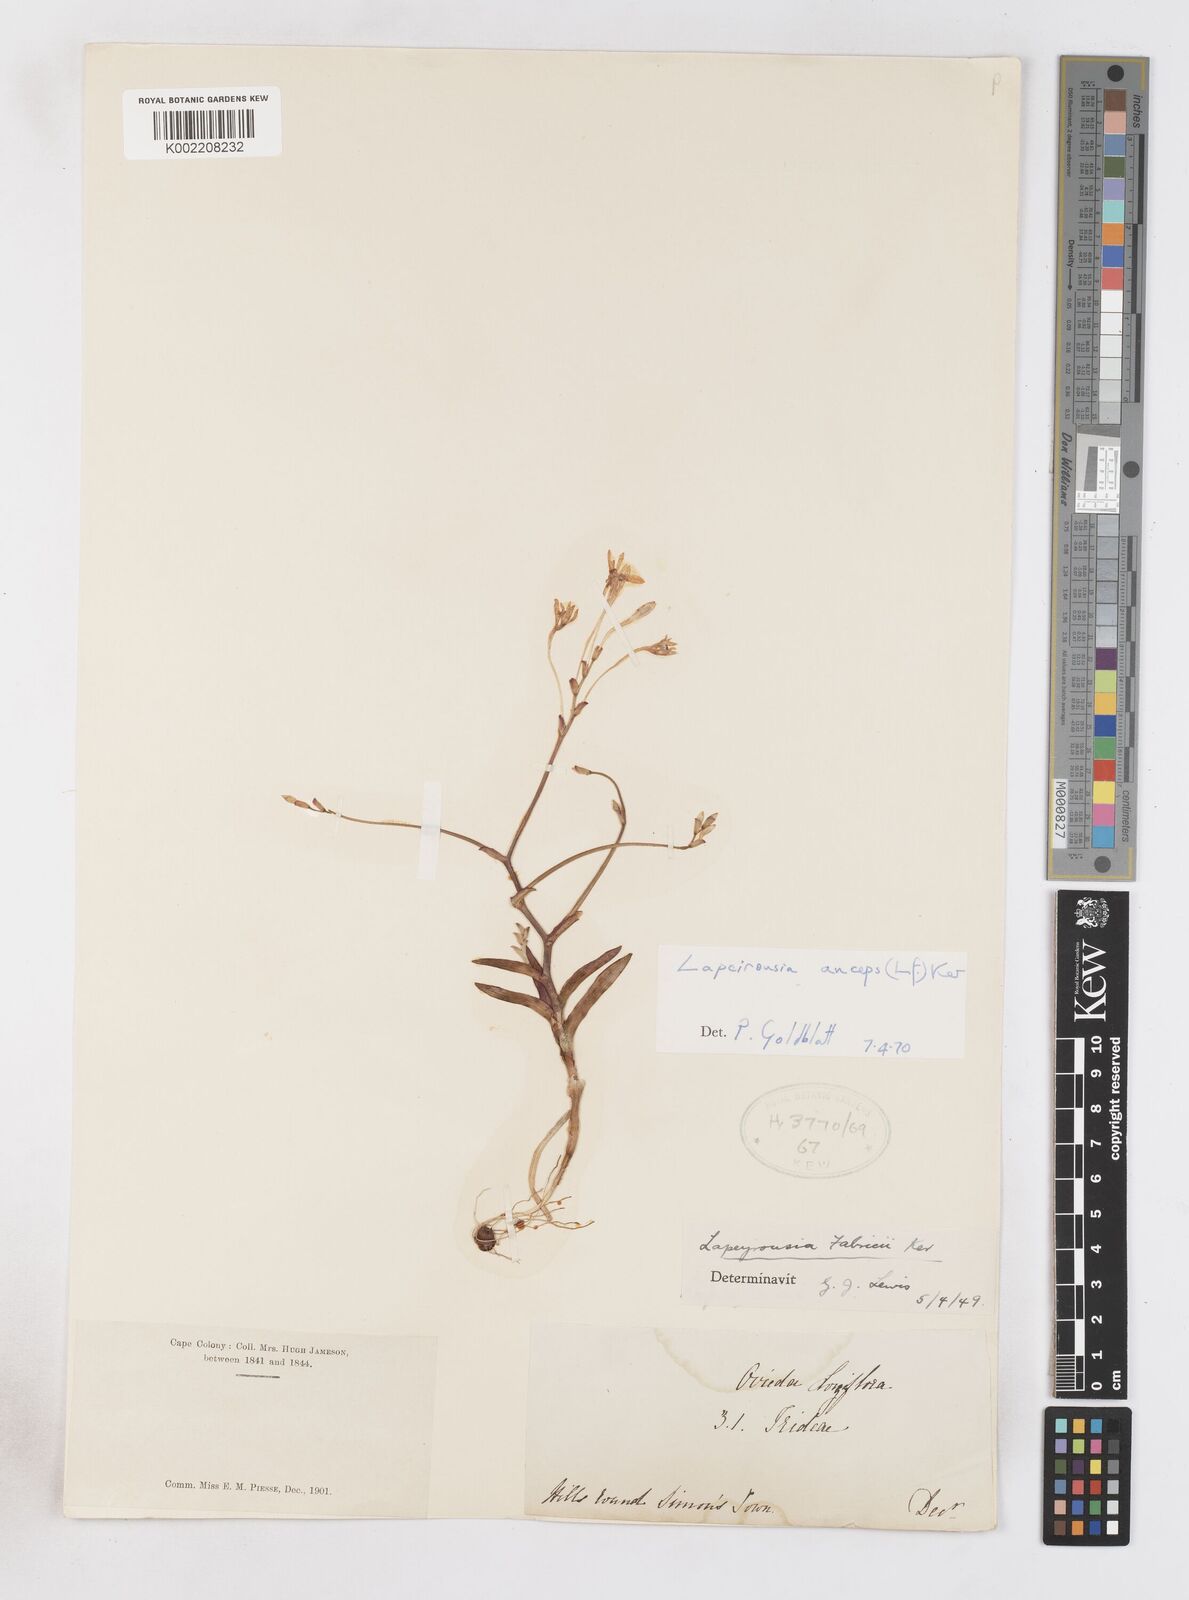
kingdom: Plantae
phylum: Tracheophyta
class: Liliopsida
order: Asparagales
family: Iridaceae
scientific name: Iridaceae
